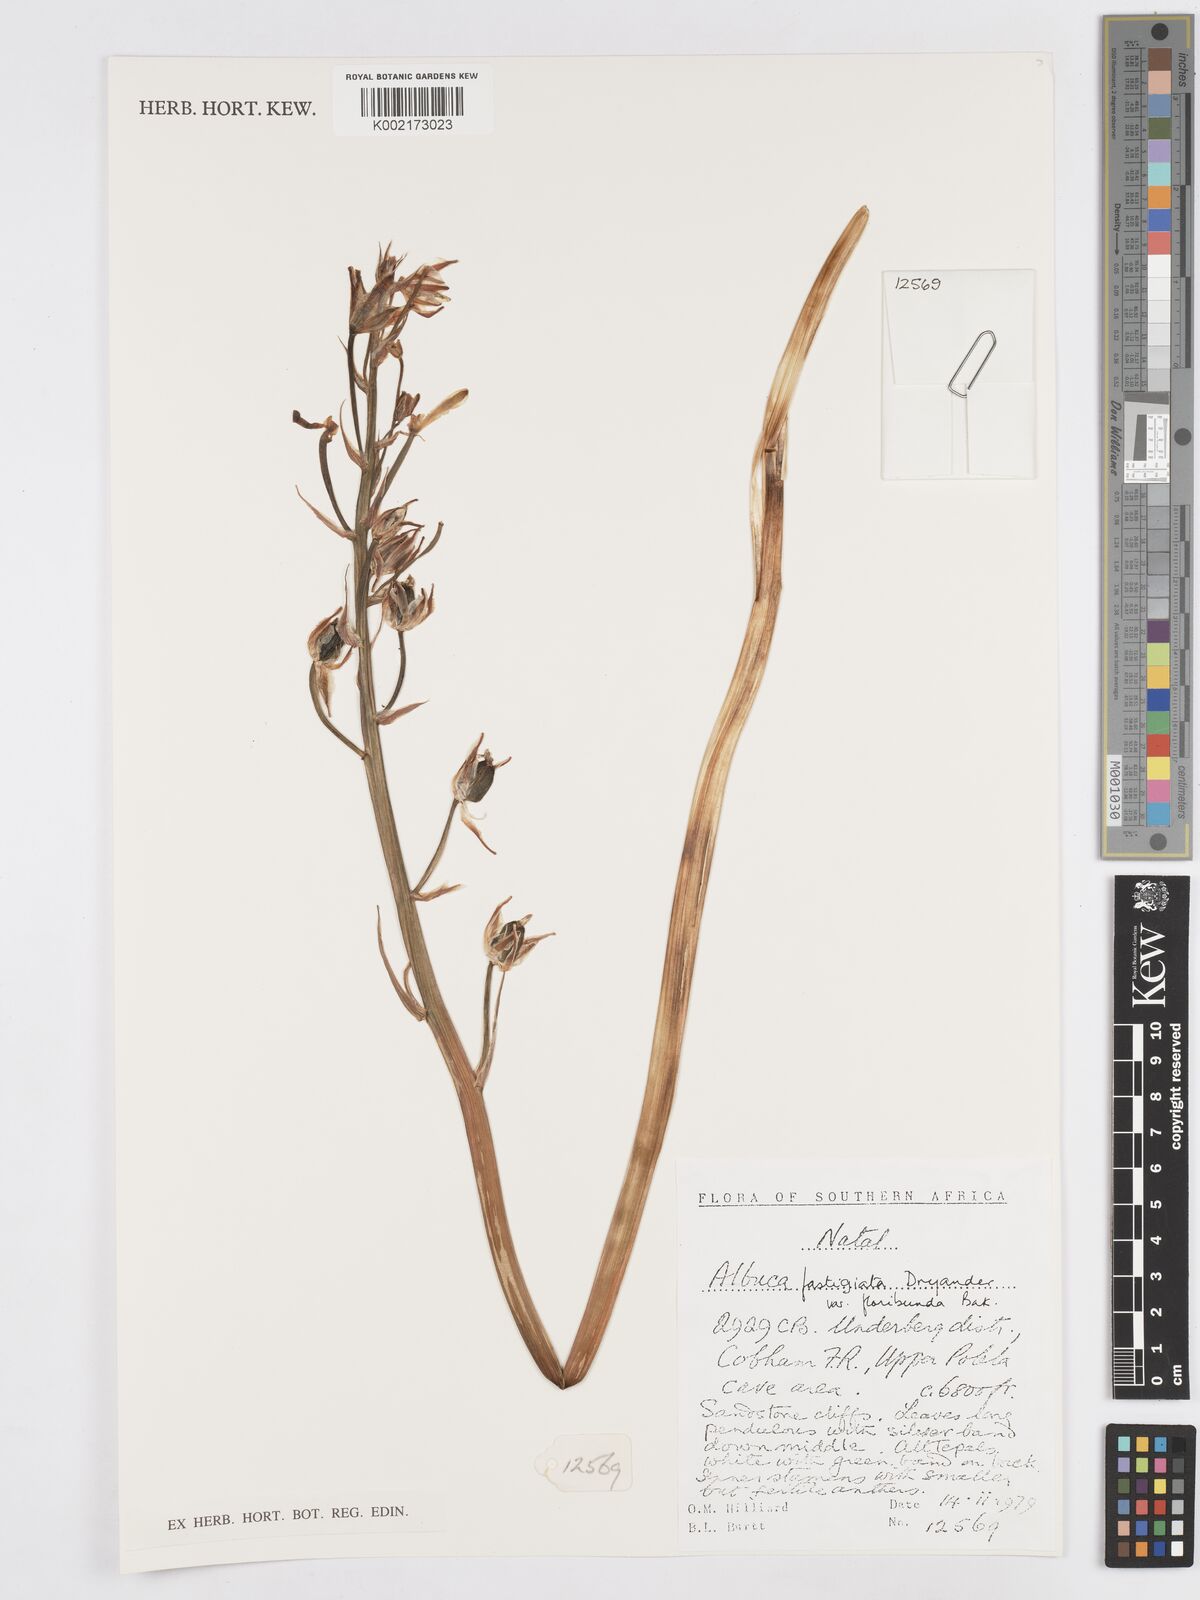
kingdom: Plantae
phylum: Tracheophyta
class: Liliopsida
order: Asparagales
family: Asparagaceae
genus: Albuca
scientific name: Albuca tortuosa
